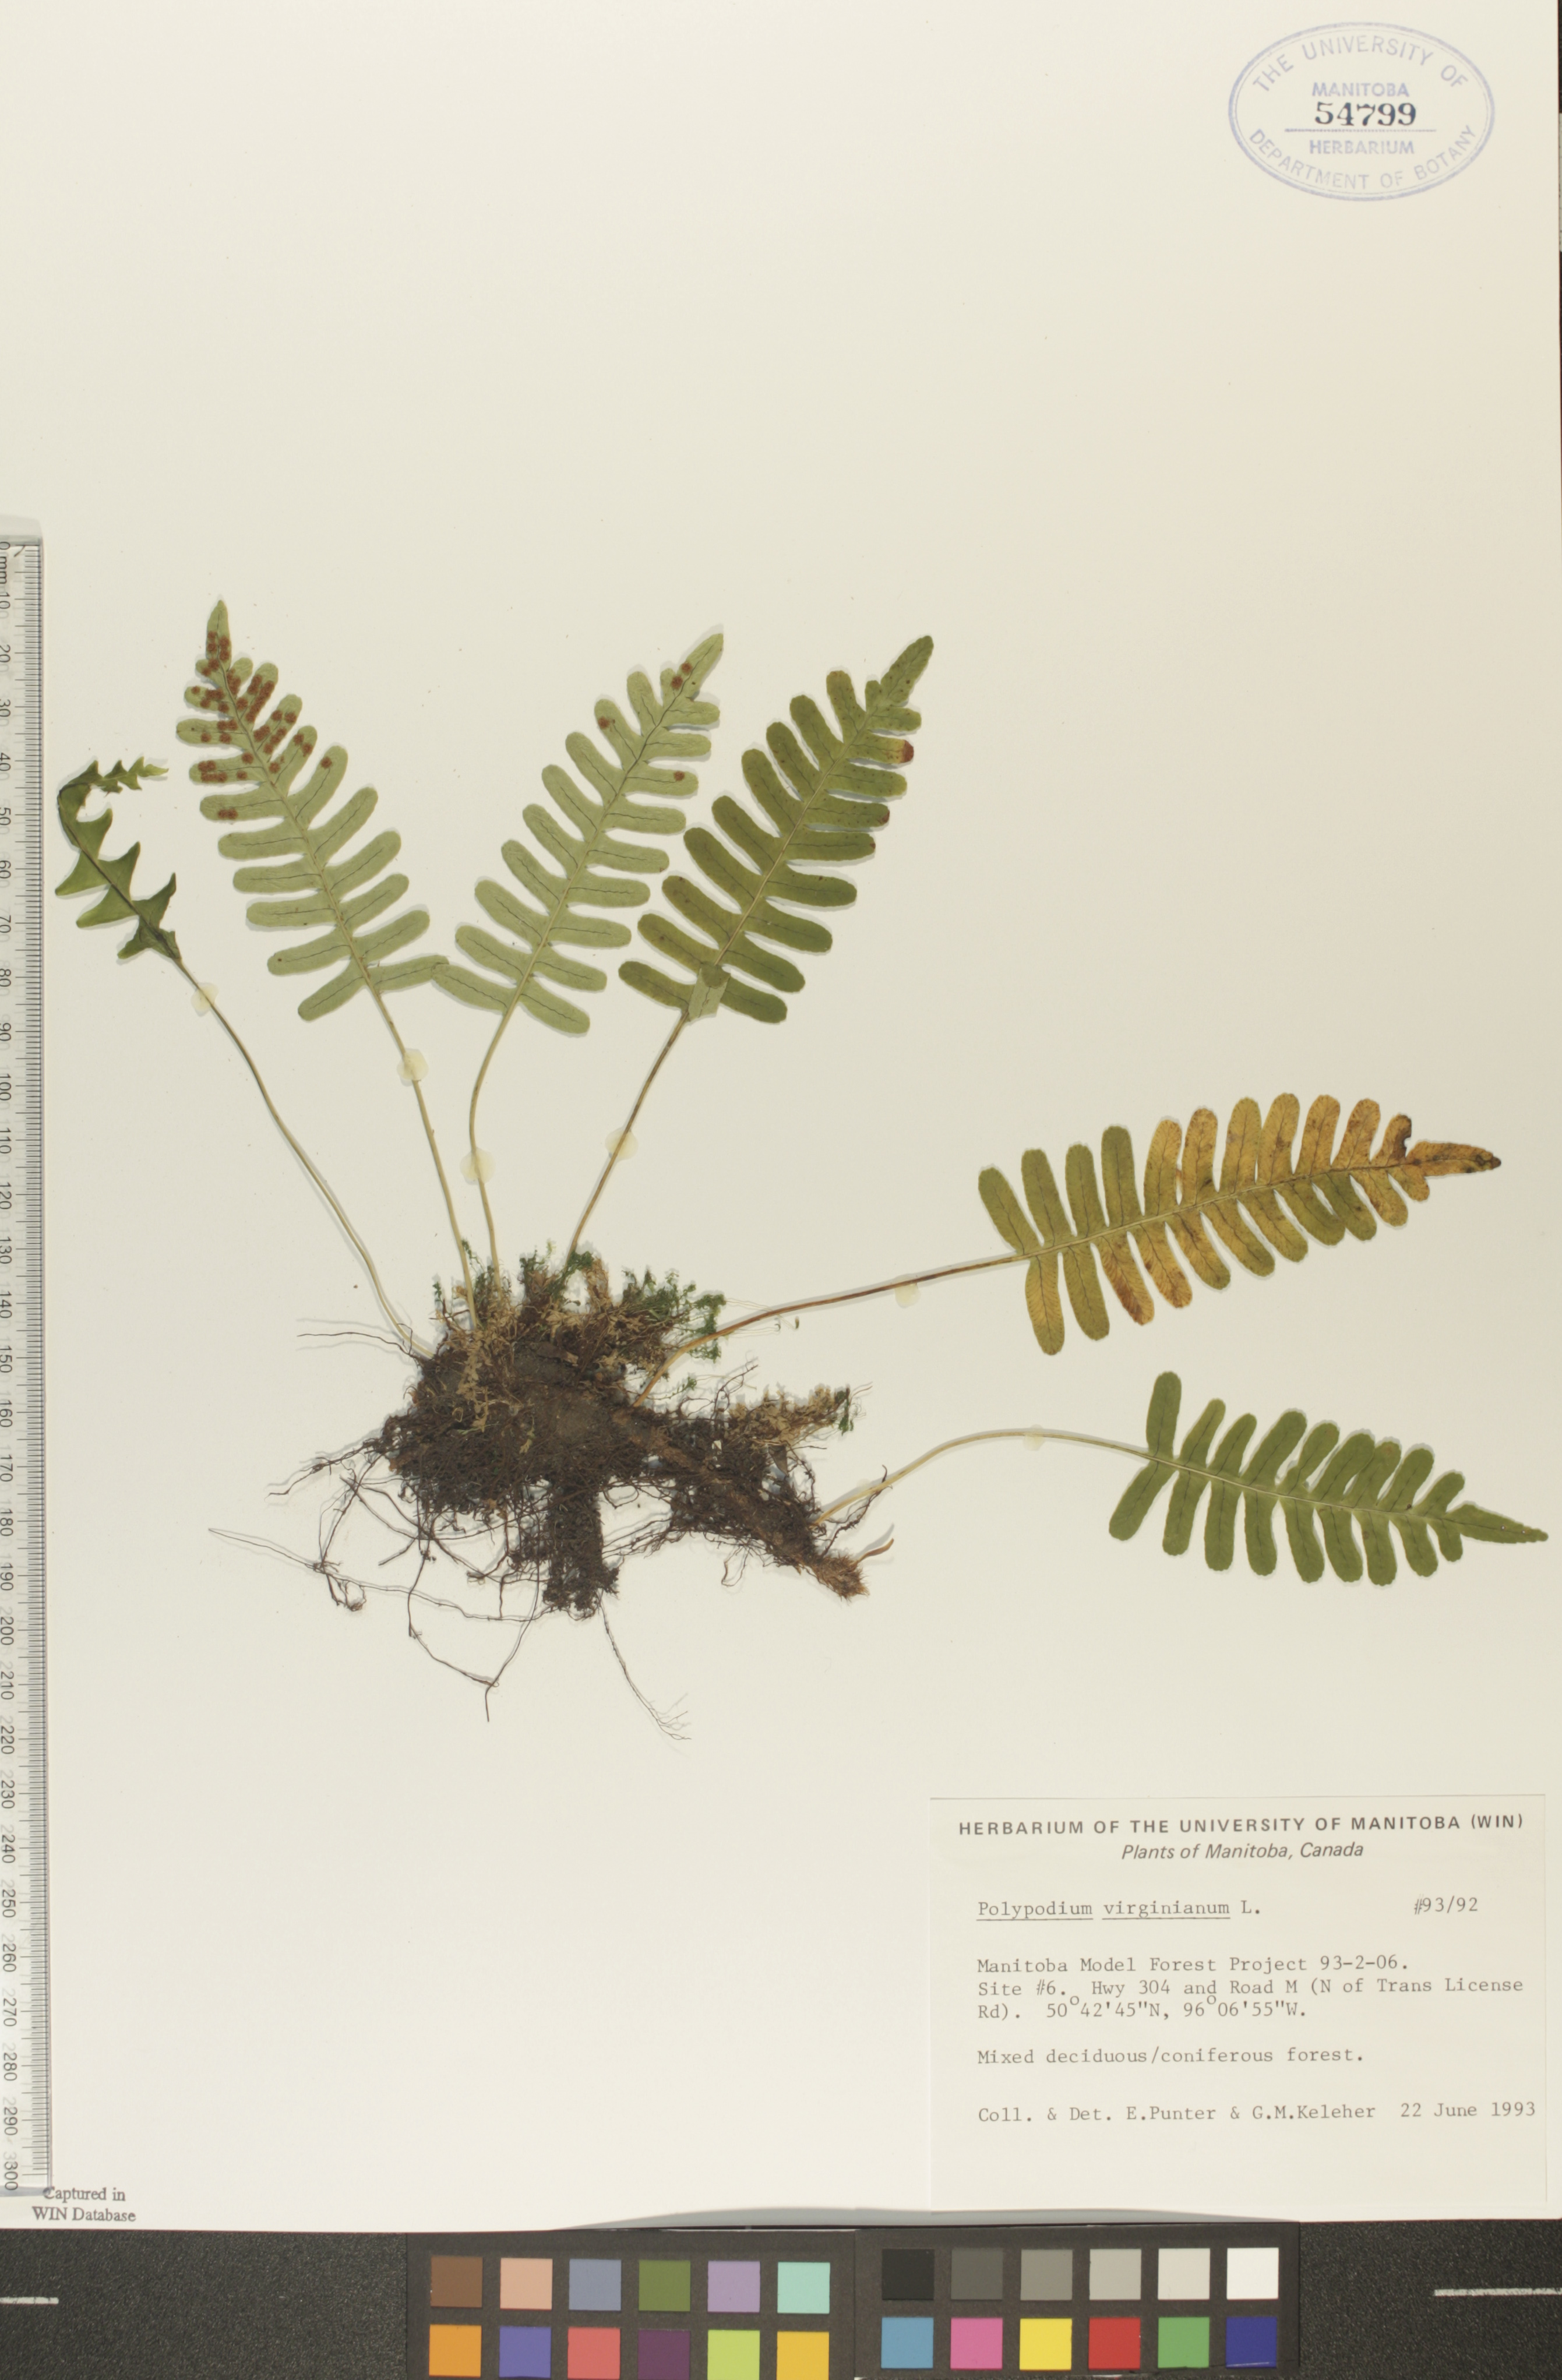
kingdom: Plantae
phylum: Tracheophyta
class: Polypodiopsida
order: Polypodiales
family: Polypodiaceae
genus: Polypodium
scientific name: Polypodium virginianum
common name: American wall fern
